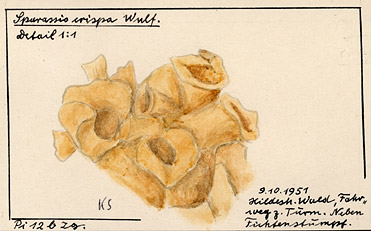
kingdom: Fungi
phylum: Basidiomycota
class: Agaricomycetes
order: Polyporales
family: Sparassidaceae
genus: Sparassis
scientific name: Sparassis crispa
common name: Brain fungus
